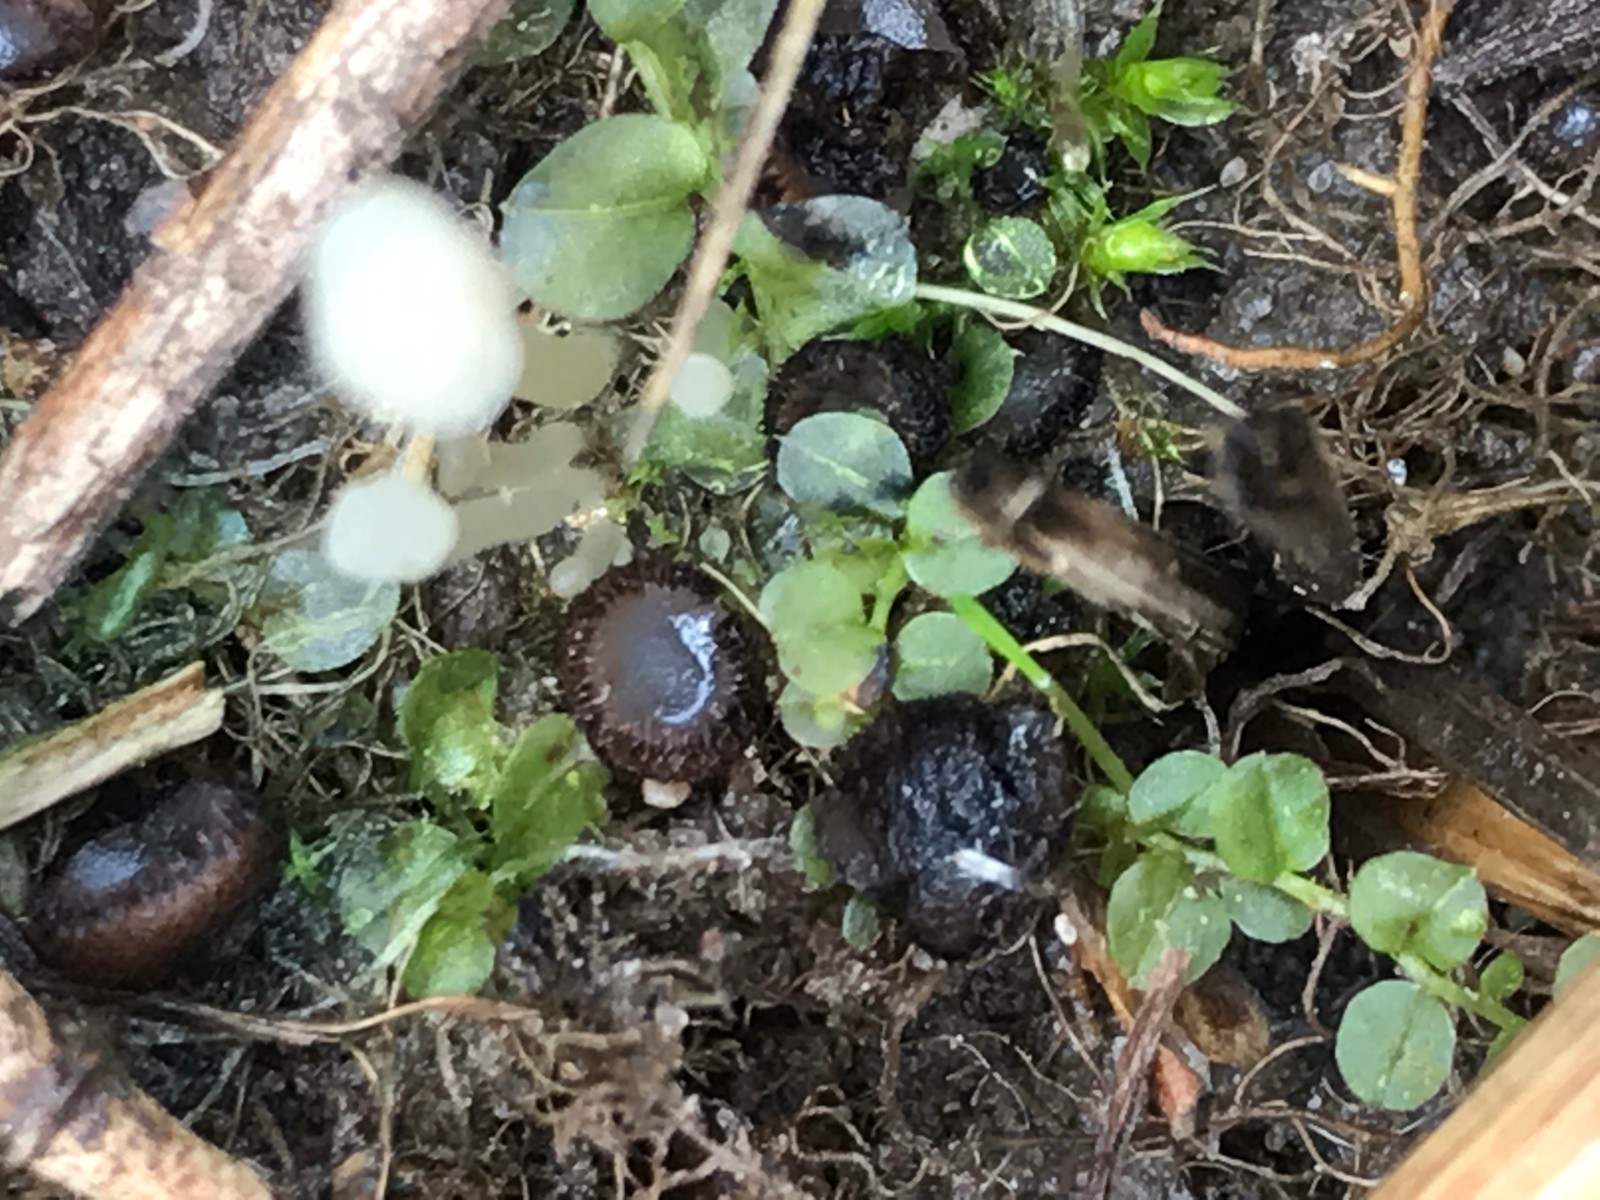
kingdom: Fungi
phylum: Ascomycota
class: Pezizomycetes
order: Pezizales
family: Pyronemataceae
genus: Trichophaea
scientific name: Trichophaea
